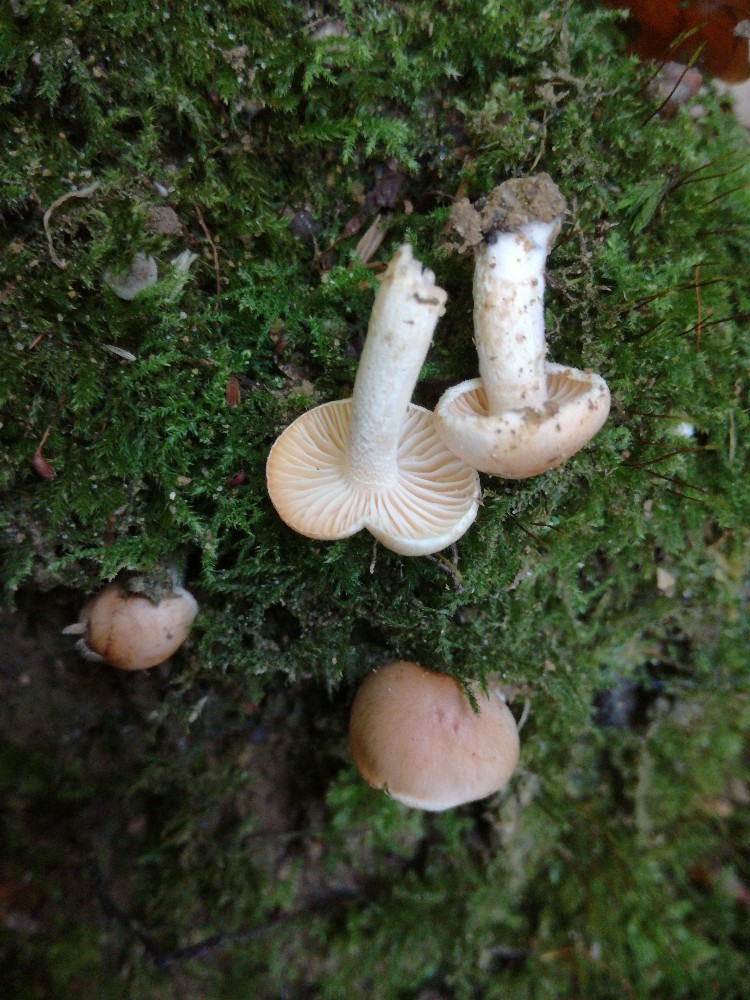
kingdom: Fungi
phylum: Basidiomycota
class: Agaricomycetes
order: Agaricales
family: Hygrophoraceae
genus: Hygrophorus
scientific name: Hygrophorus unicolor
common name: orangeøjet sneglehat
